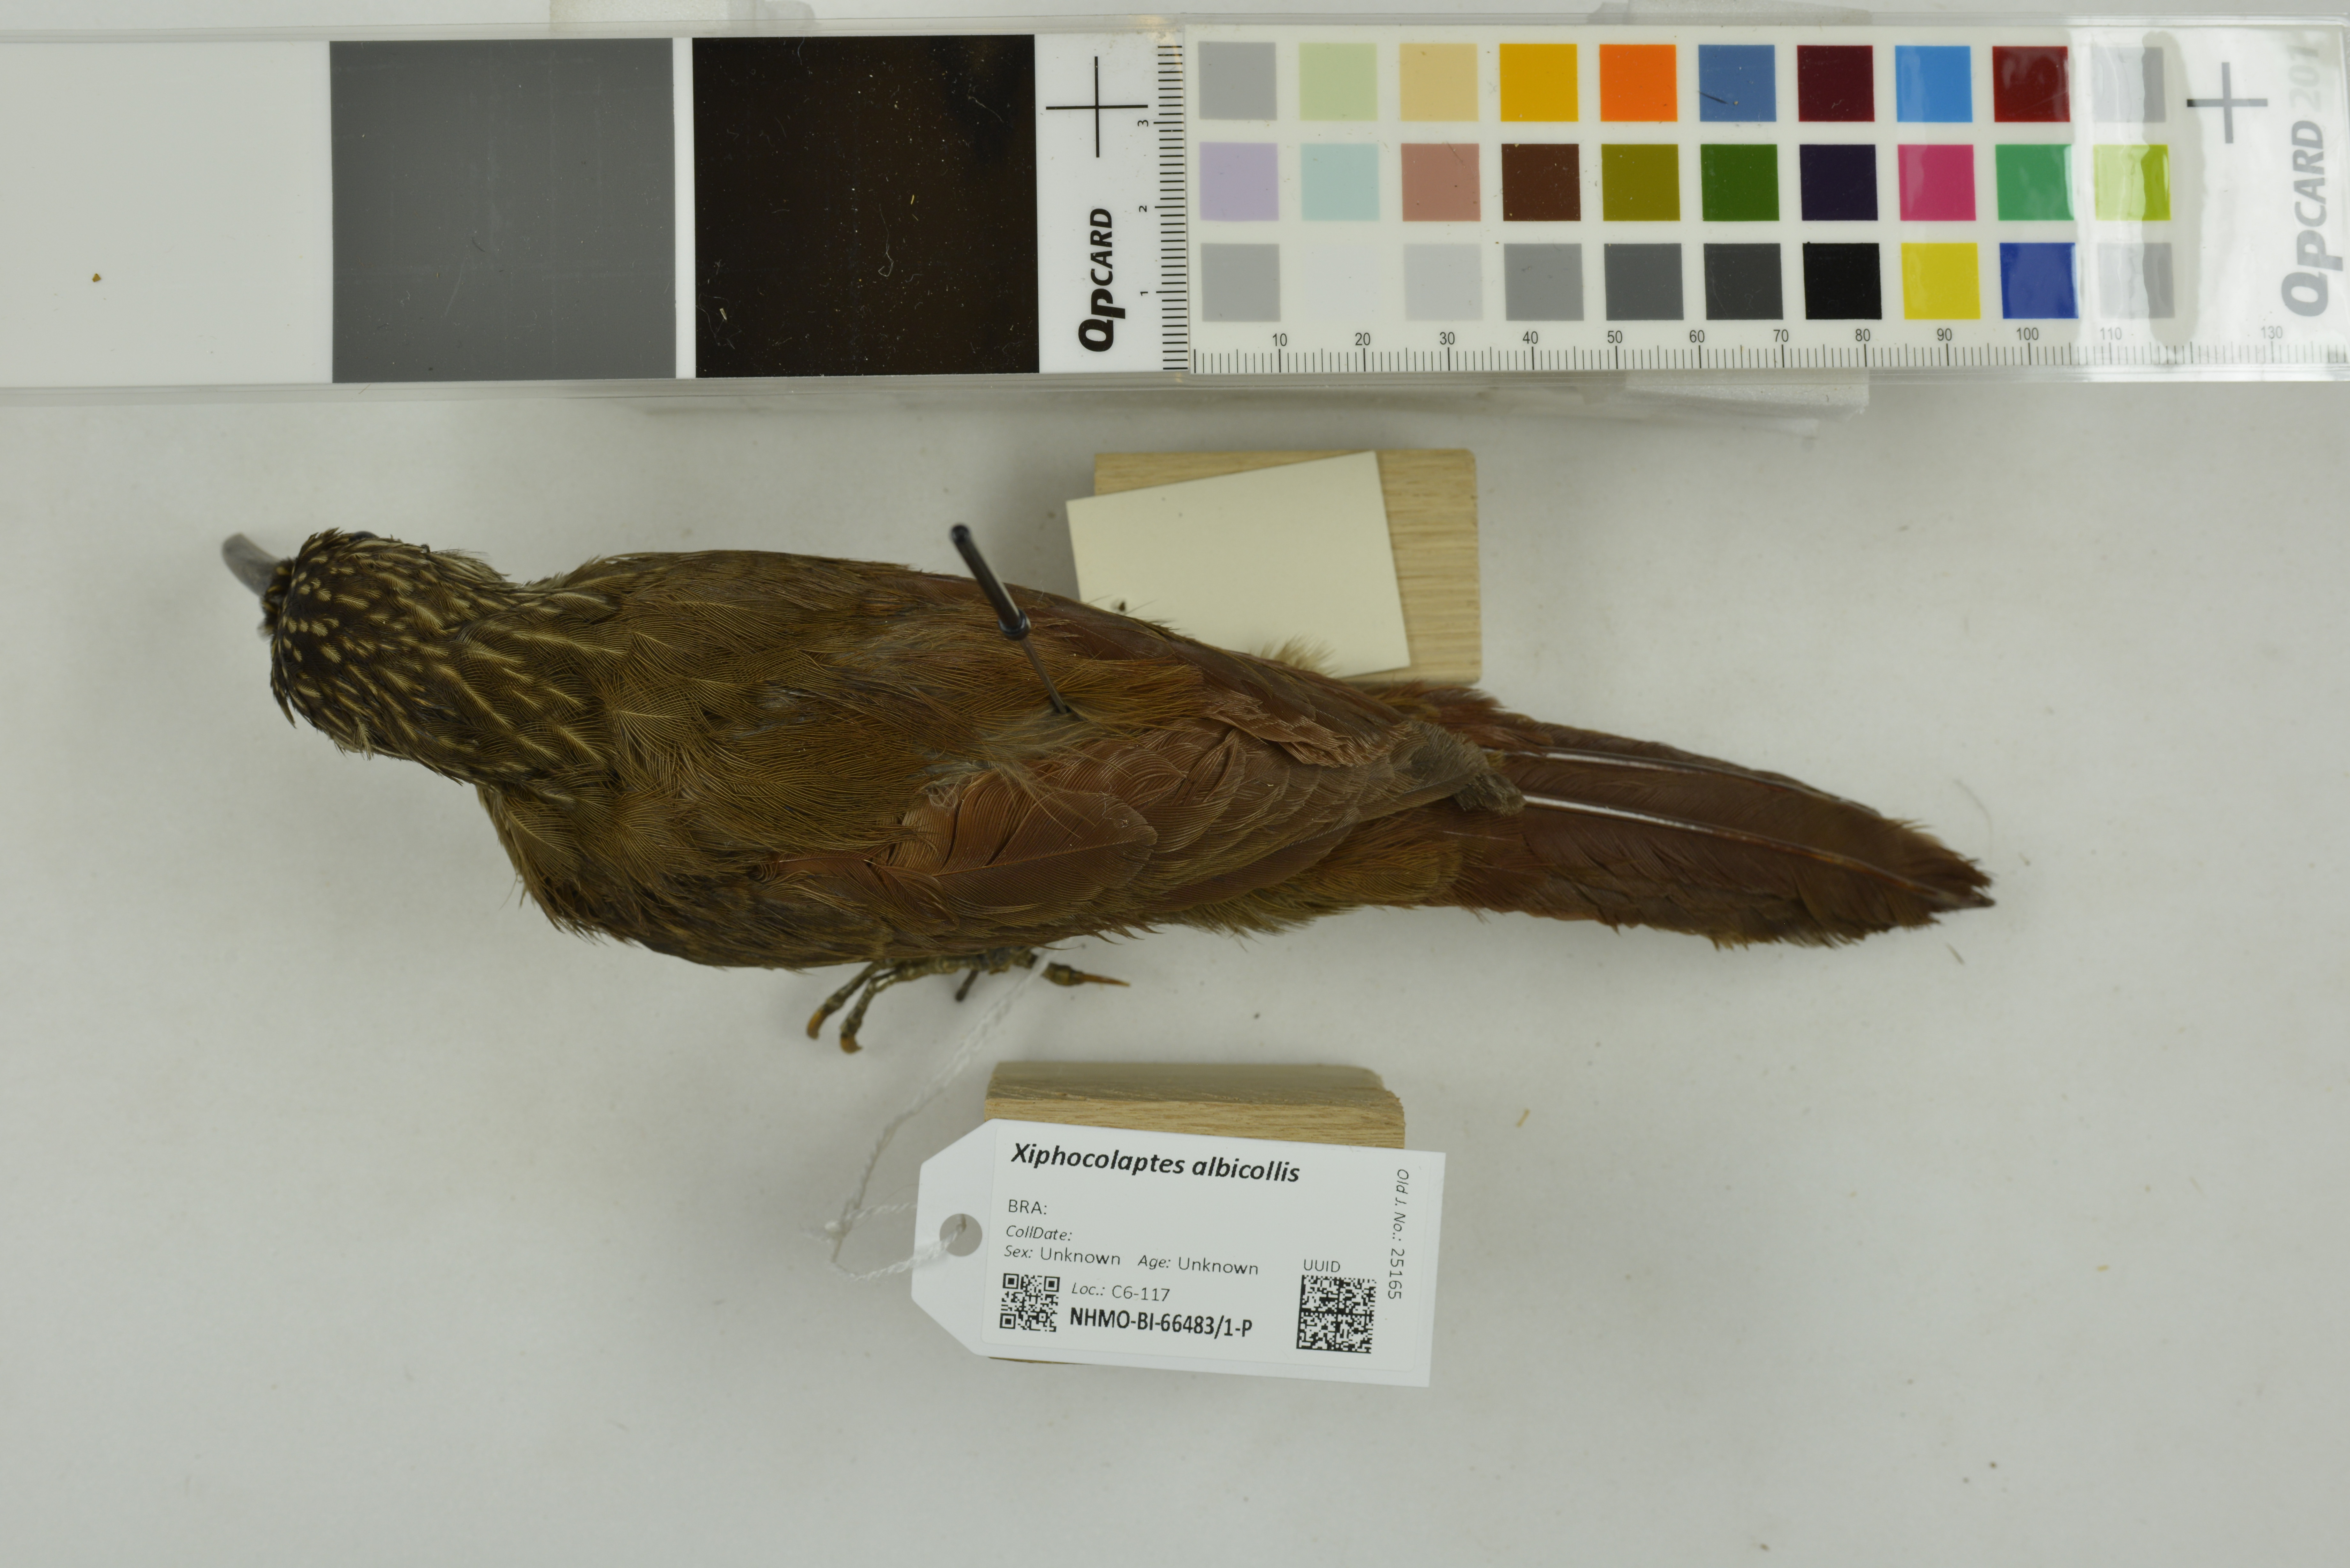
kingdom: Animalia
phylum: Chordata
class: Aves
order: Passeriformes
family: Furnariidae
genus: Xiphocolaptes
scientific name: Xiphocolaptes albicollis
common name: White-throated woodcreeper
